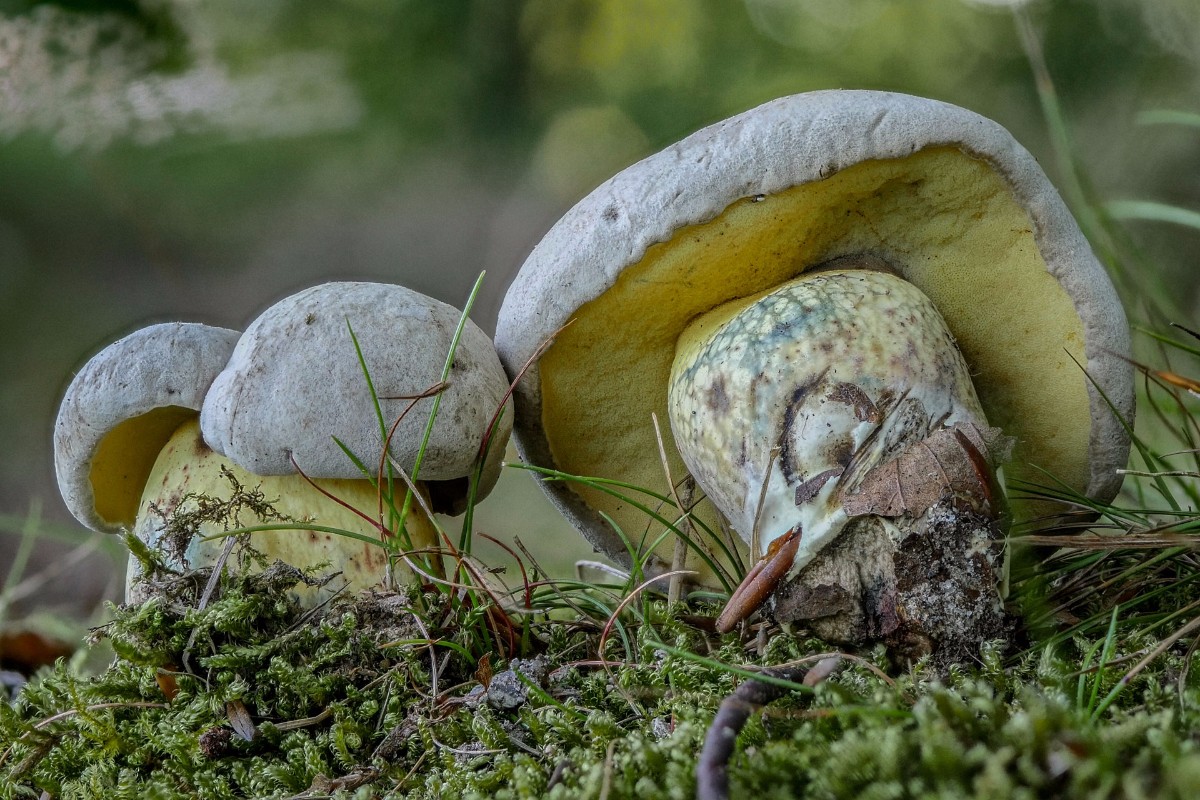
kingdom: Fungi
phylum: Basidiomycota
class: Agaricomycetes
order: Boletales
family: Boletaceae
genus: Caloboletus
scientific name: Caloboletus radicans
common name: rod-rørhat
